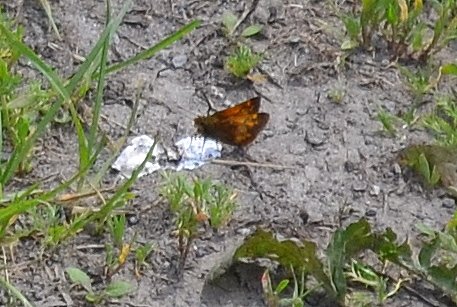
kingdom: Animalia
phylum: Arthropoda
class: Insecta
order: Lepidoptera
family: Hesperiidae
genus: Lon
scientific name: Lon hobomok
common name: Hobomok Skipper
